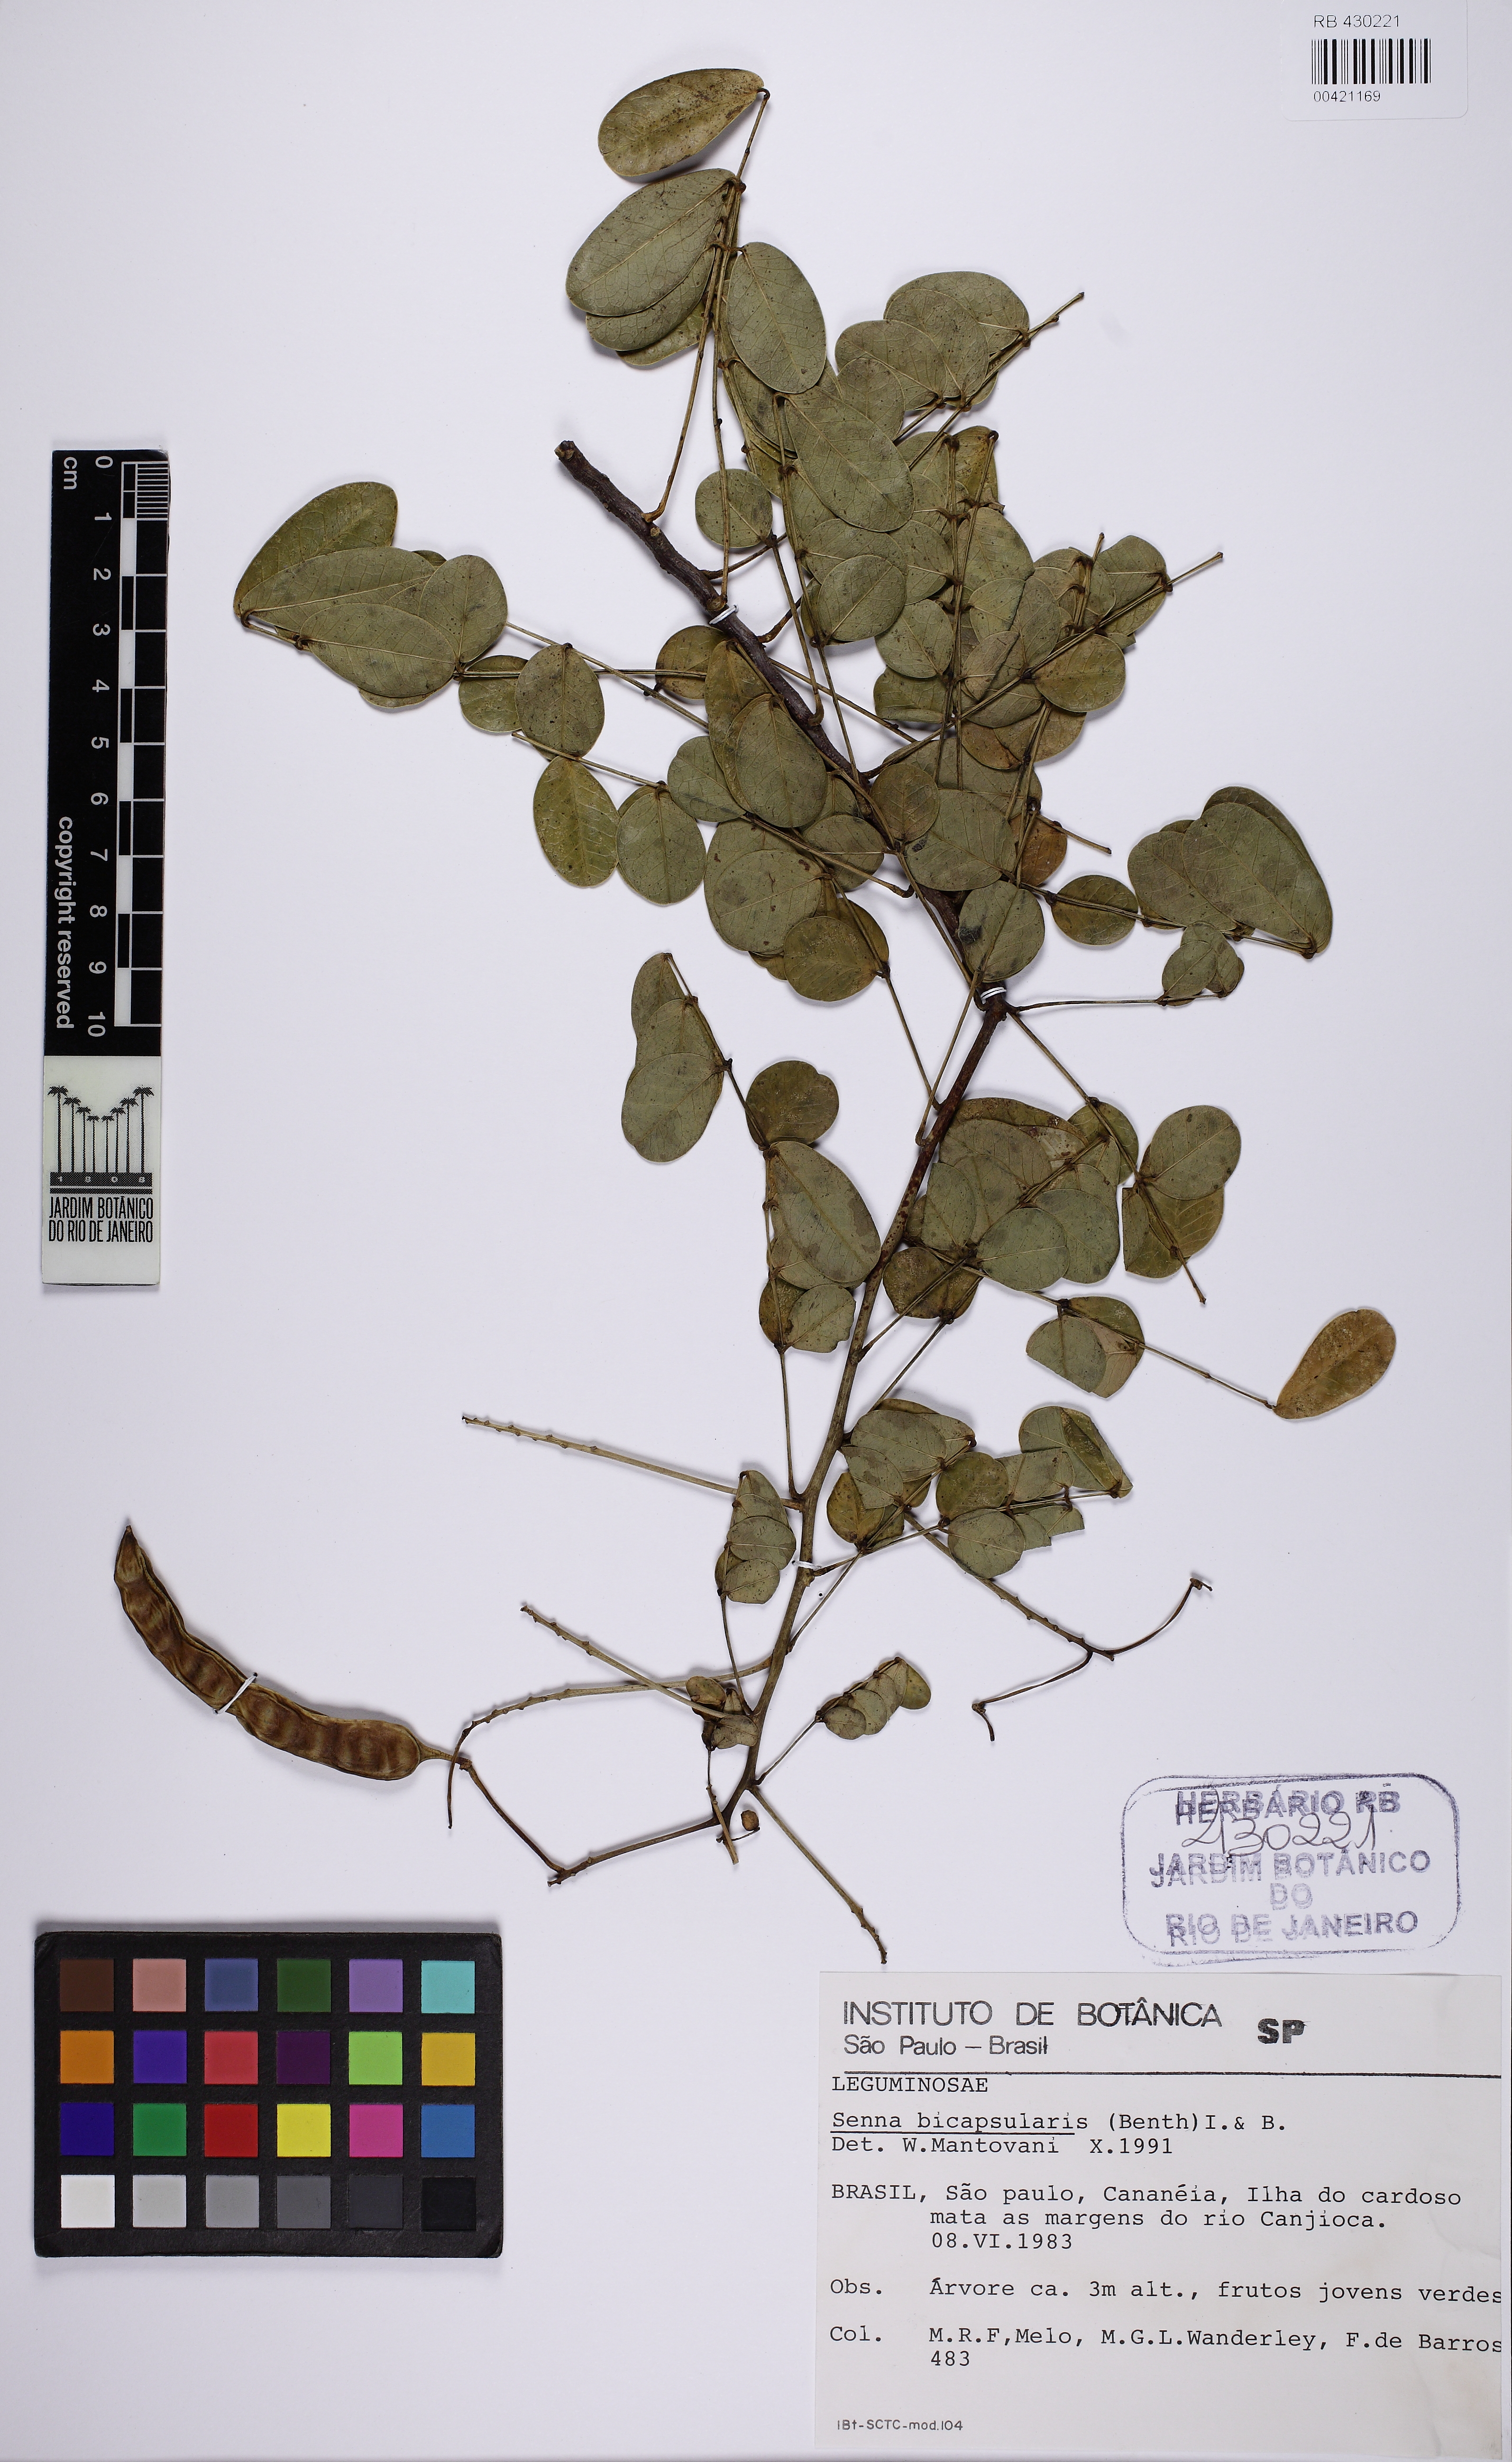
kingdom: Plantae
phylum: Tracheophyta
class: Magnoliopsida
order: Fabales
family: Fabaceae
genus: Senna
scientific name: Senna pendula
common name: Easter cassia
